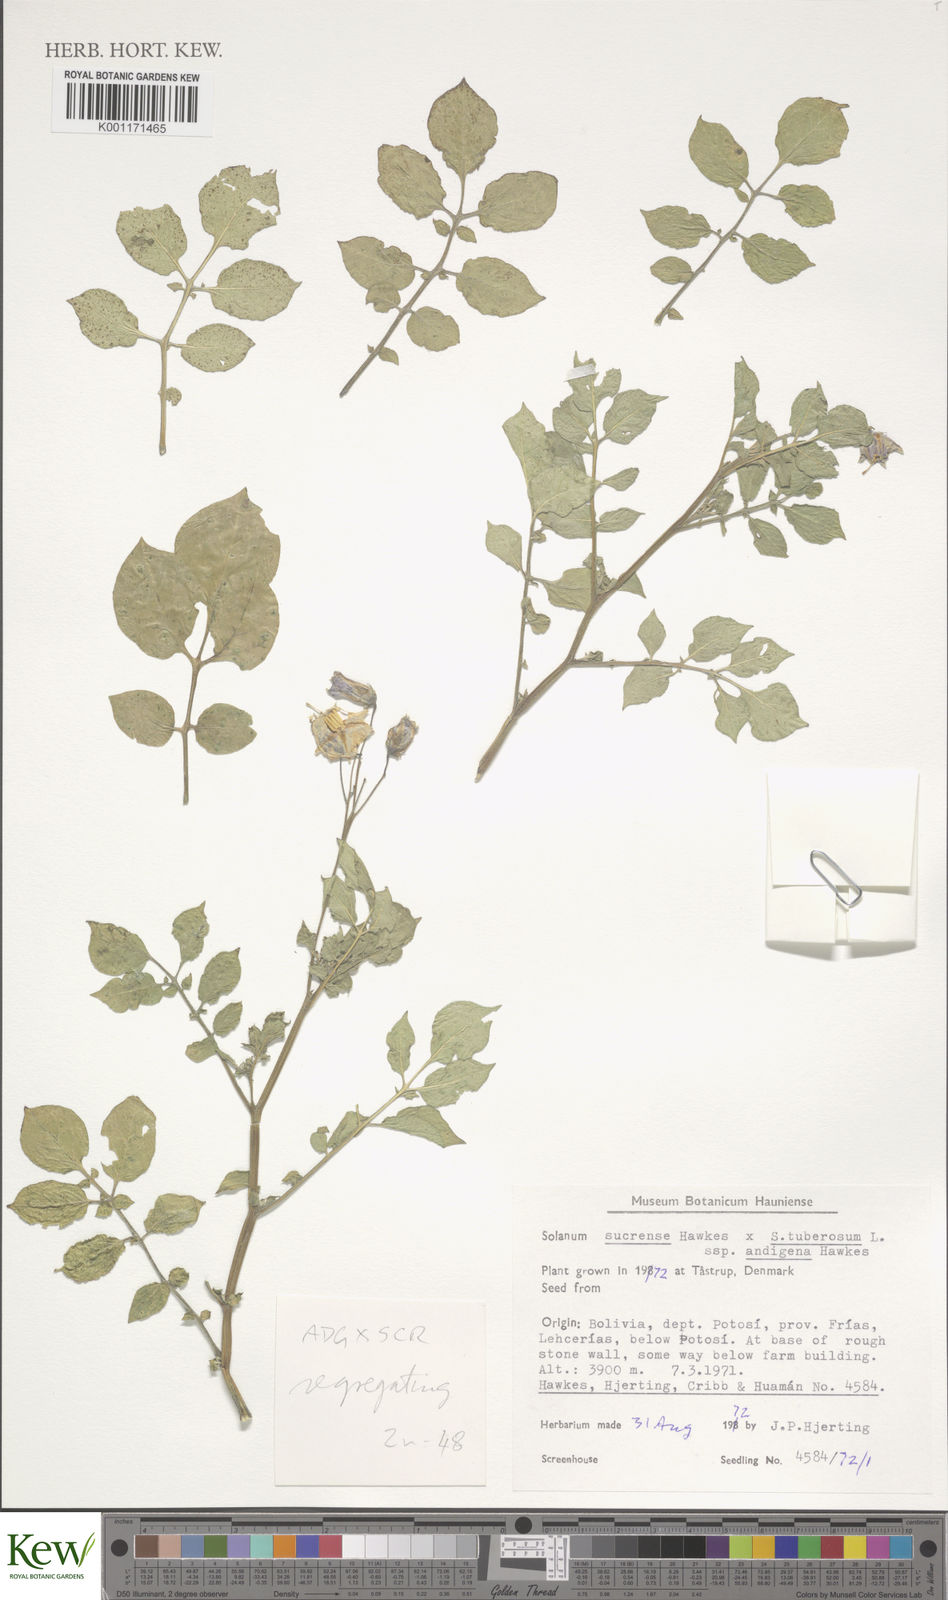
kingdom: Plantae
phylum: Tracheophyta
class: Magnoliopsida
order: Solanales
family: Solanaceae
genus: Solanum
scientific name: Solanum tuberosum
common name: Potato
